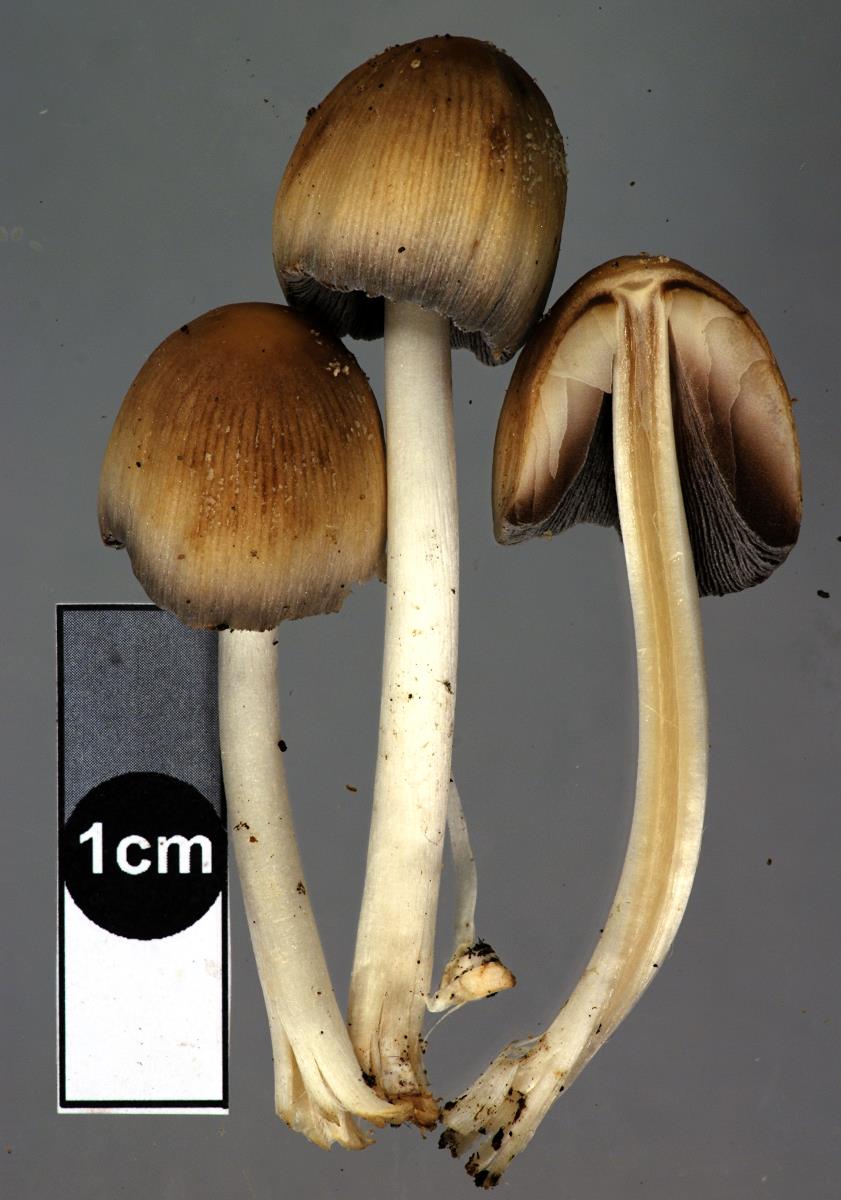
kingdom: Fungi
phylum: Basidiomycota
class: Agaricomycetes
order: Agaricales
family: Psathyrellaceae
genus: Coprinellus
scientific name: Coprinellus
